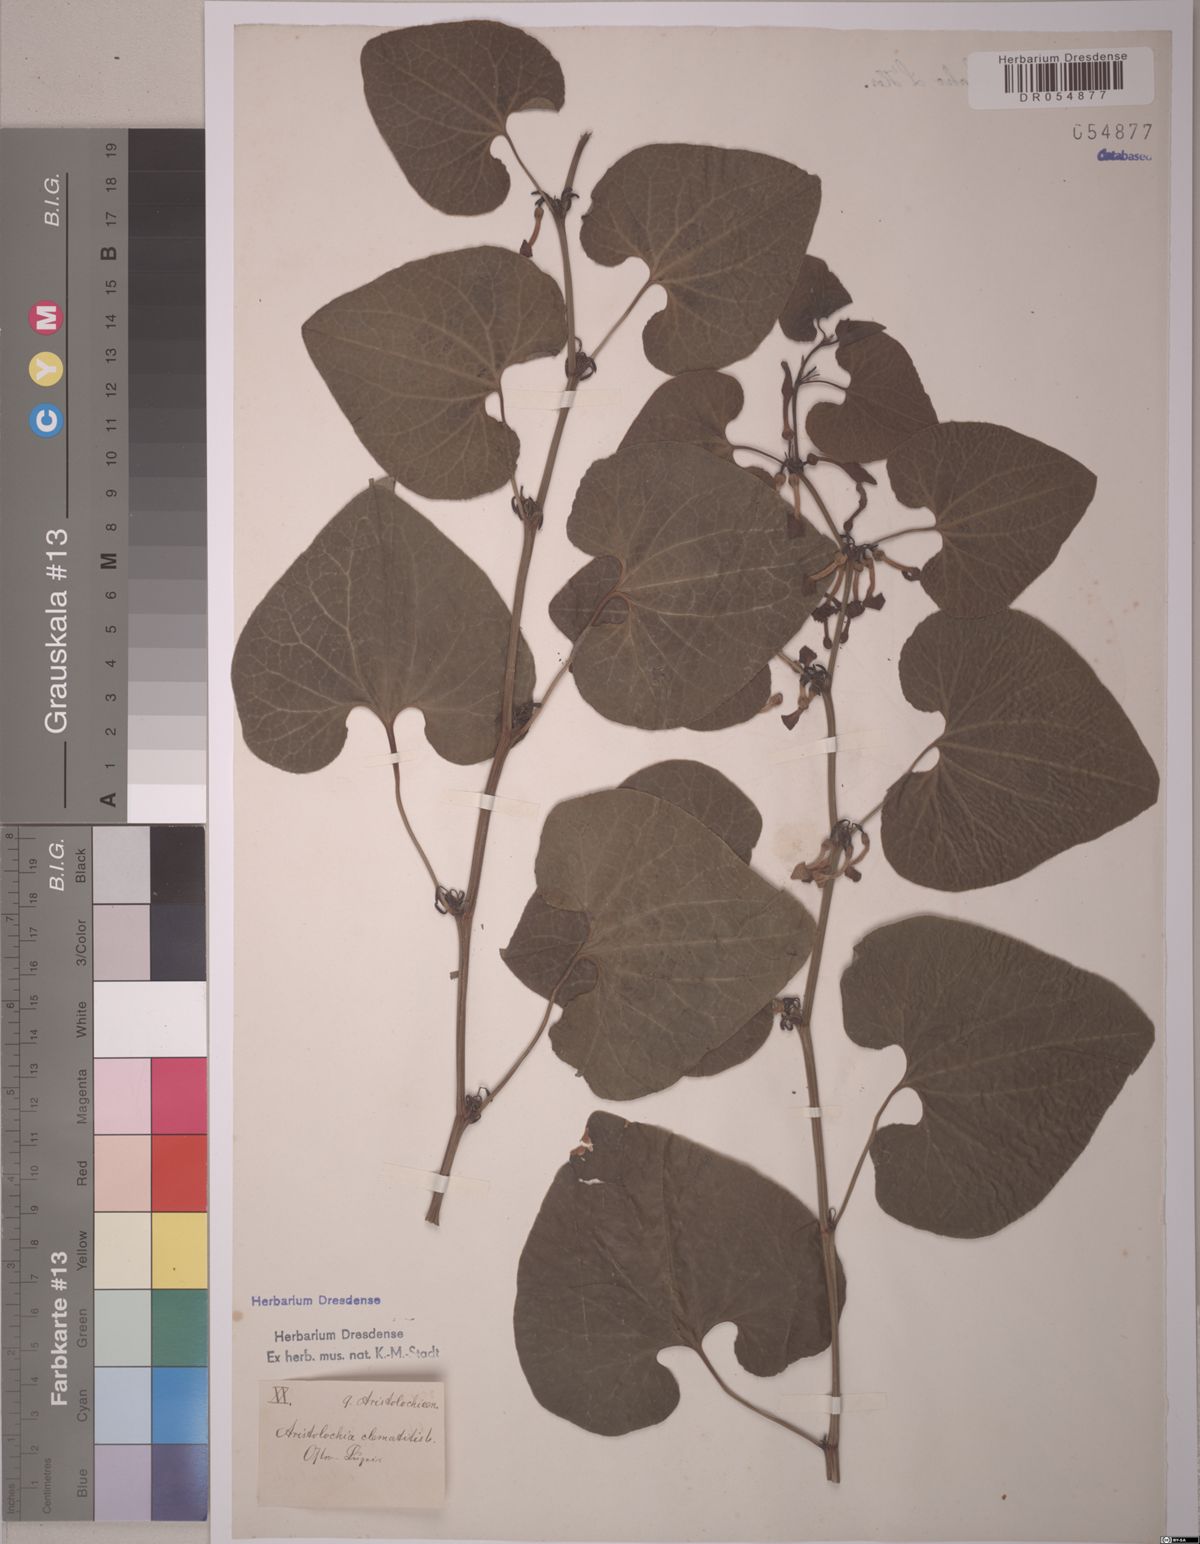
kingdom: Plantae
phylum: Tracheophyta
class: Magnoliopsida
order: Piperales
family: Aristolochiaceae
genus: Aristolochia
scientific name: Aristolochia clematitis
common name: Birthwort
